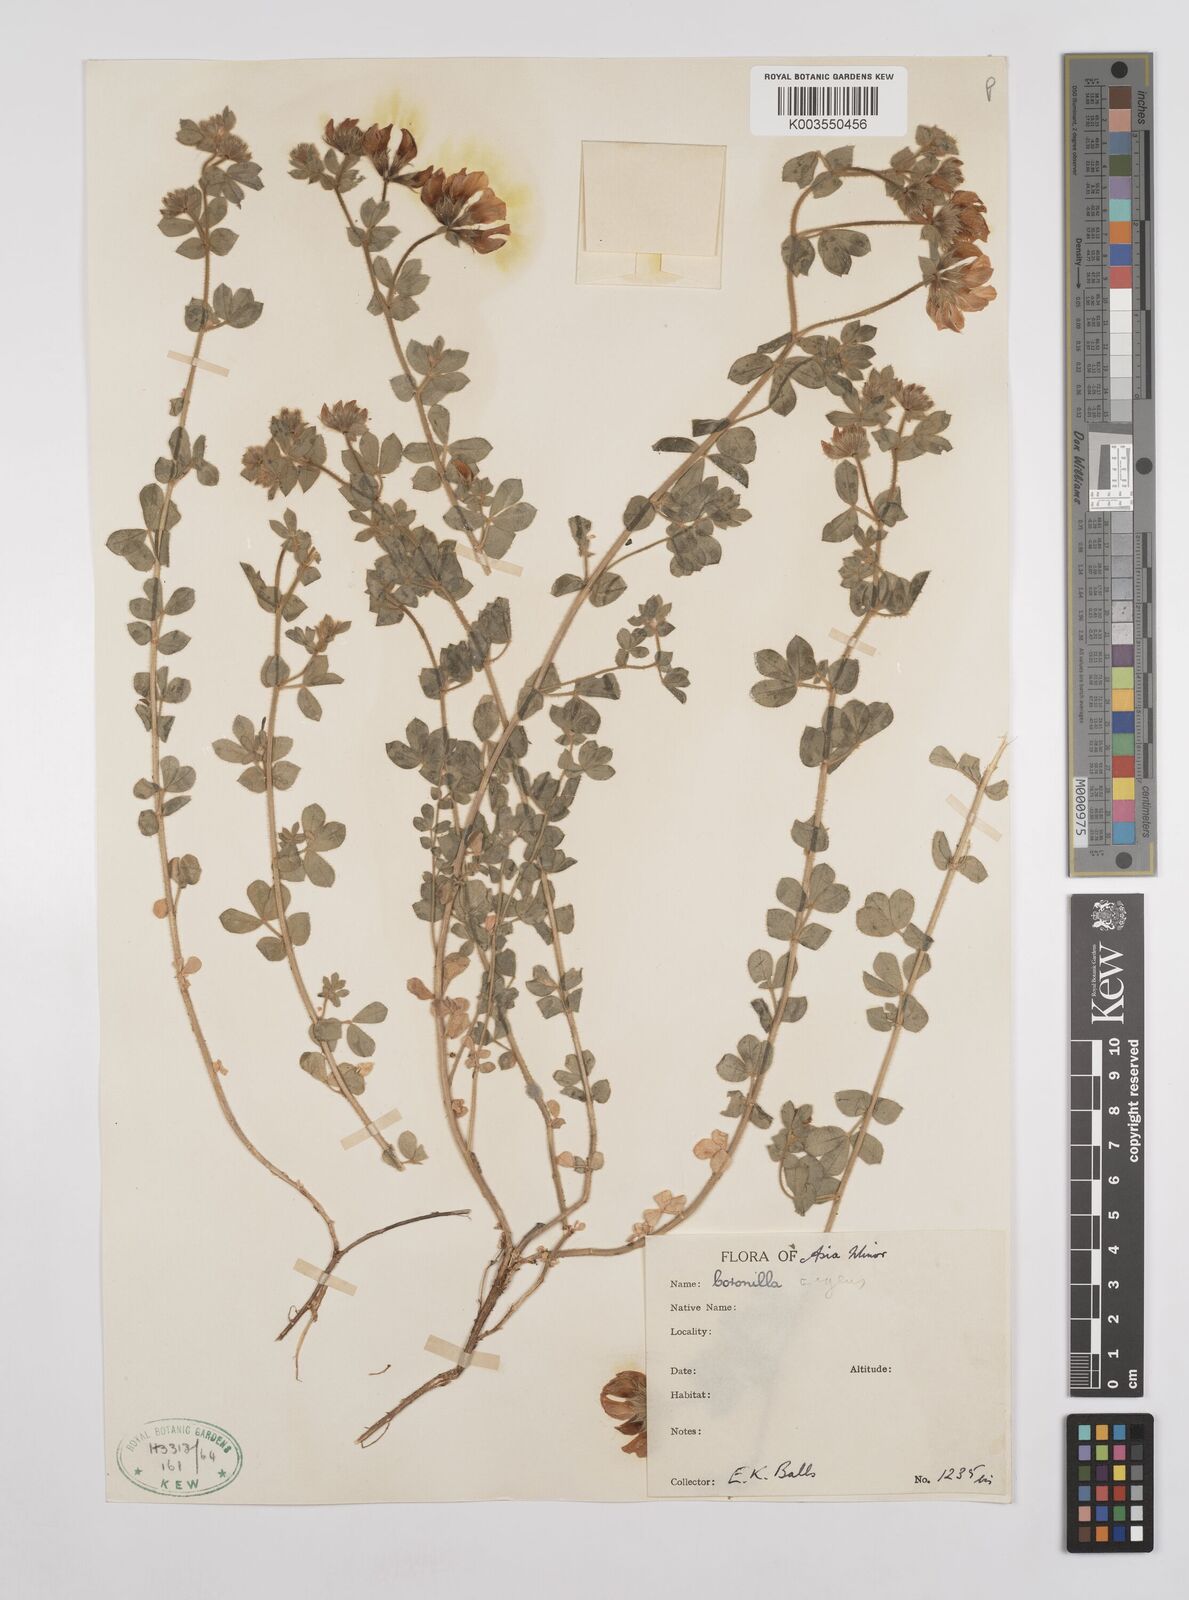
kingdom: Plantae
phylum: Tracheophyta
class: Magnoliopsida
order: Fabales
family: Fabaceae
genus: Lotus
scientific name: Lotus aegaeus
